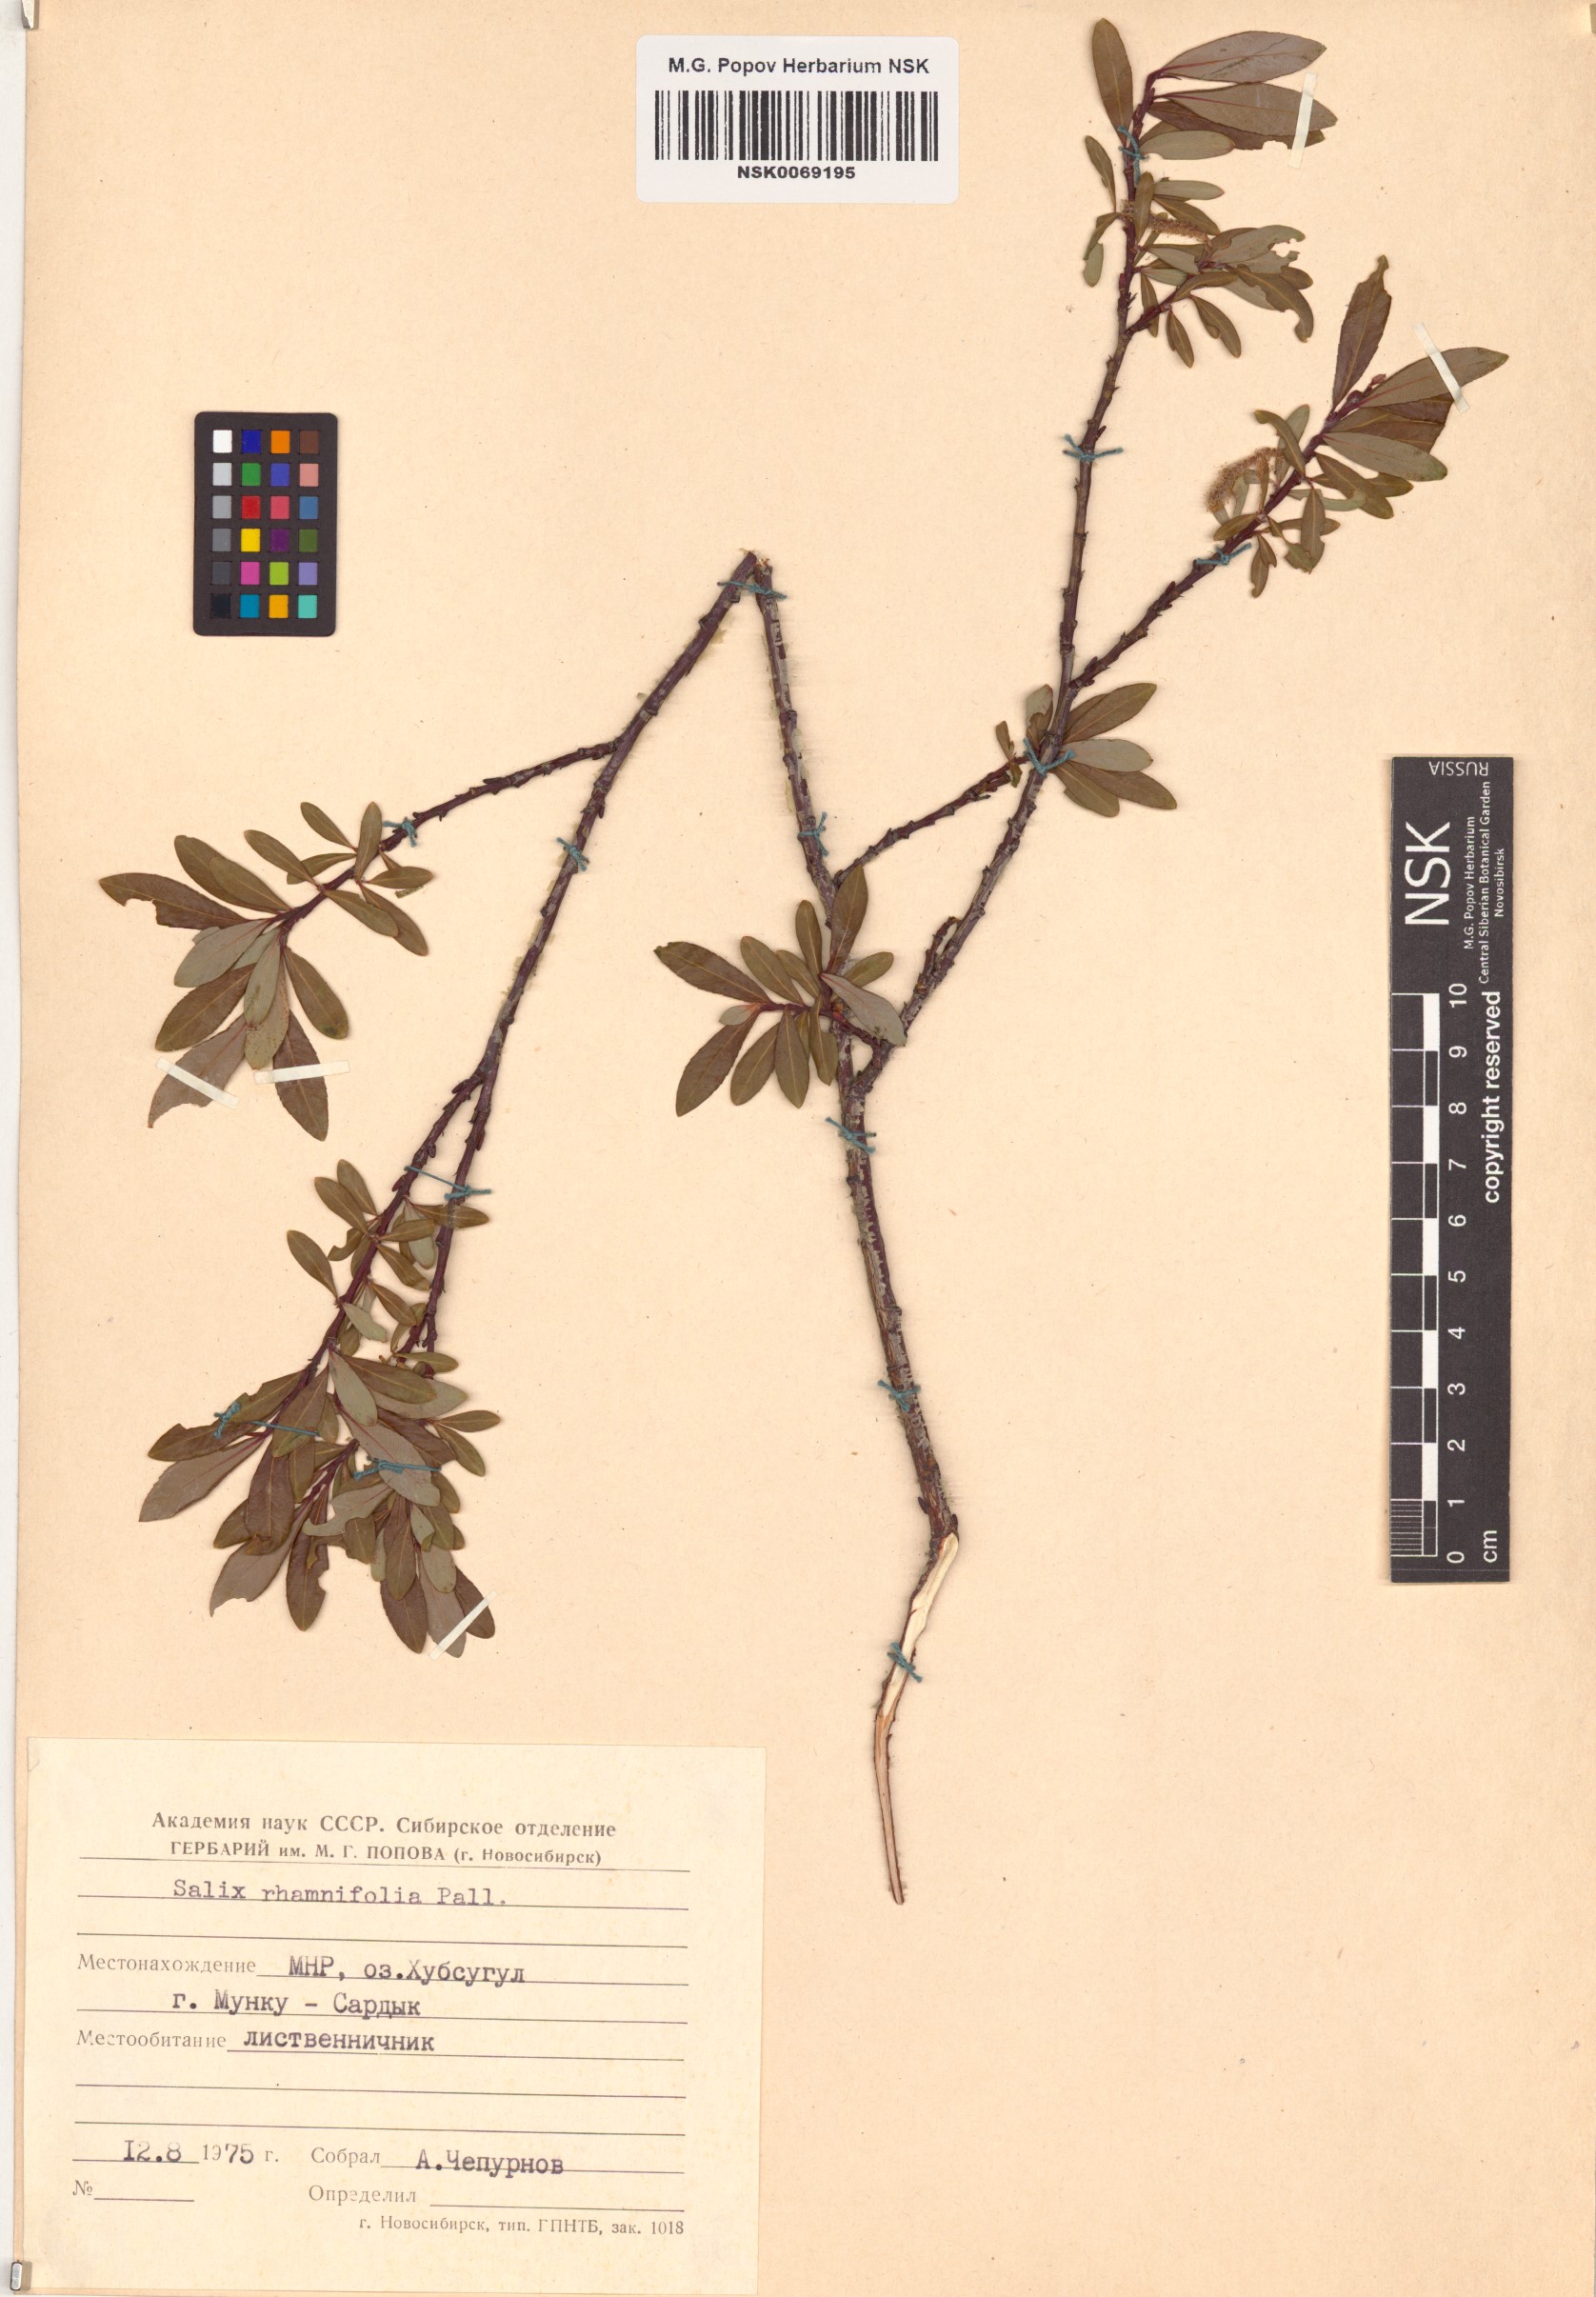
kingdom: Plantae
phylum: Tracheophyta
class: Magnoliopsida
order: Malpighiales
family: Salicaceae
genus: Salix
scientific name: Salix rhamnifolia
